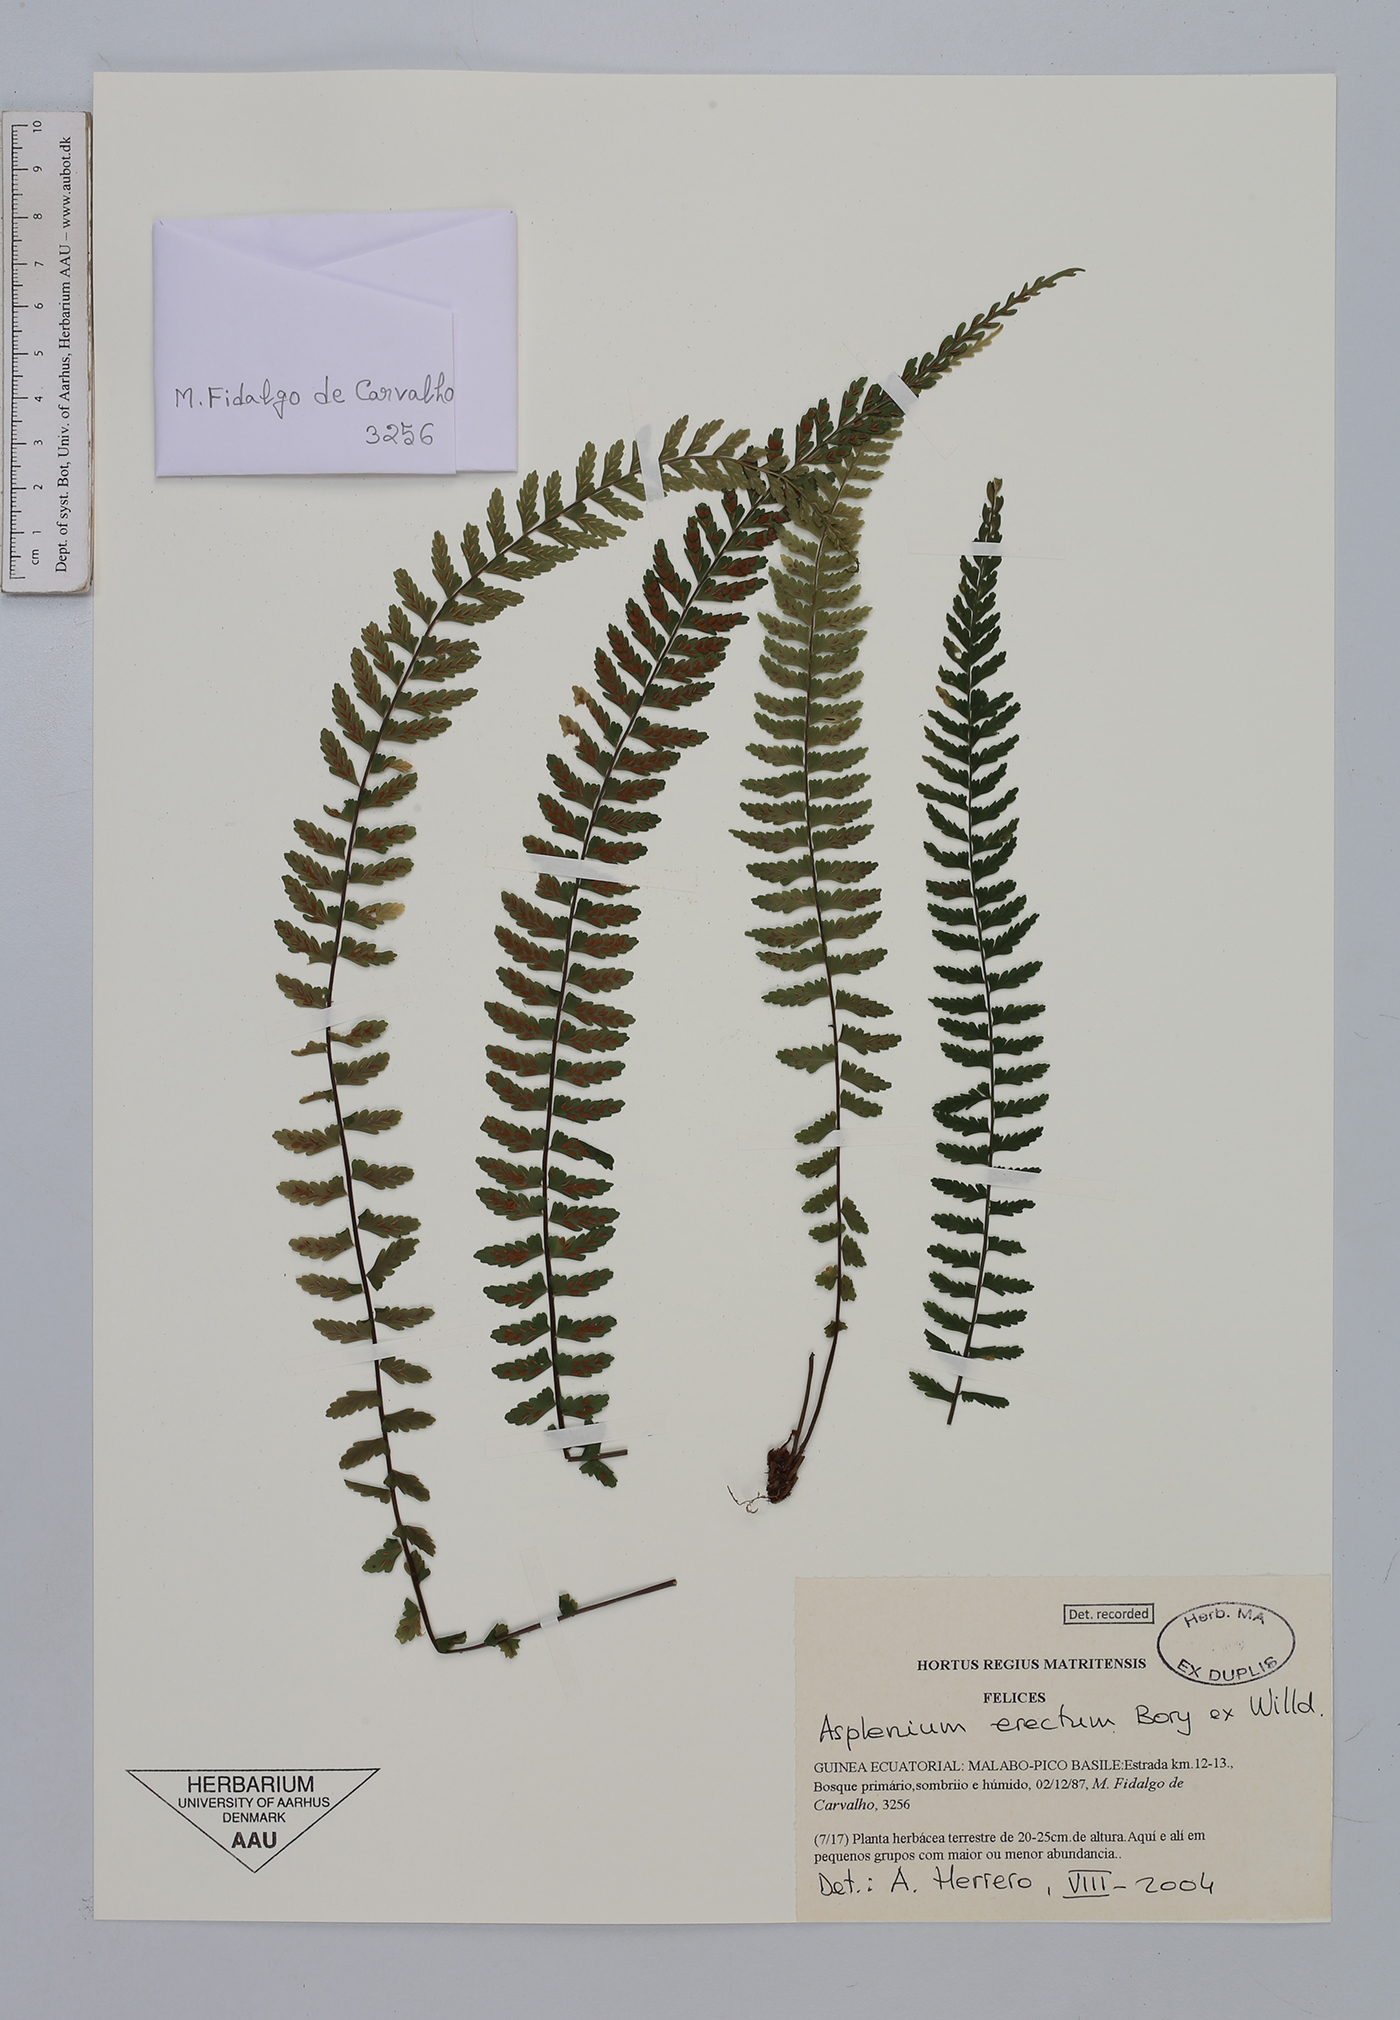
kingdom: Plantae
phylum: Tracheophyta
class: Polypodiopsida
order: Polypodiales
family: Aspleniaceae
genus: Asplenium
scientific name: Asplenium erectum
